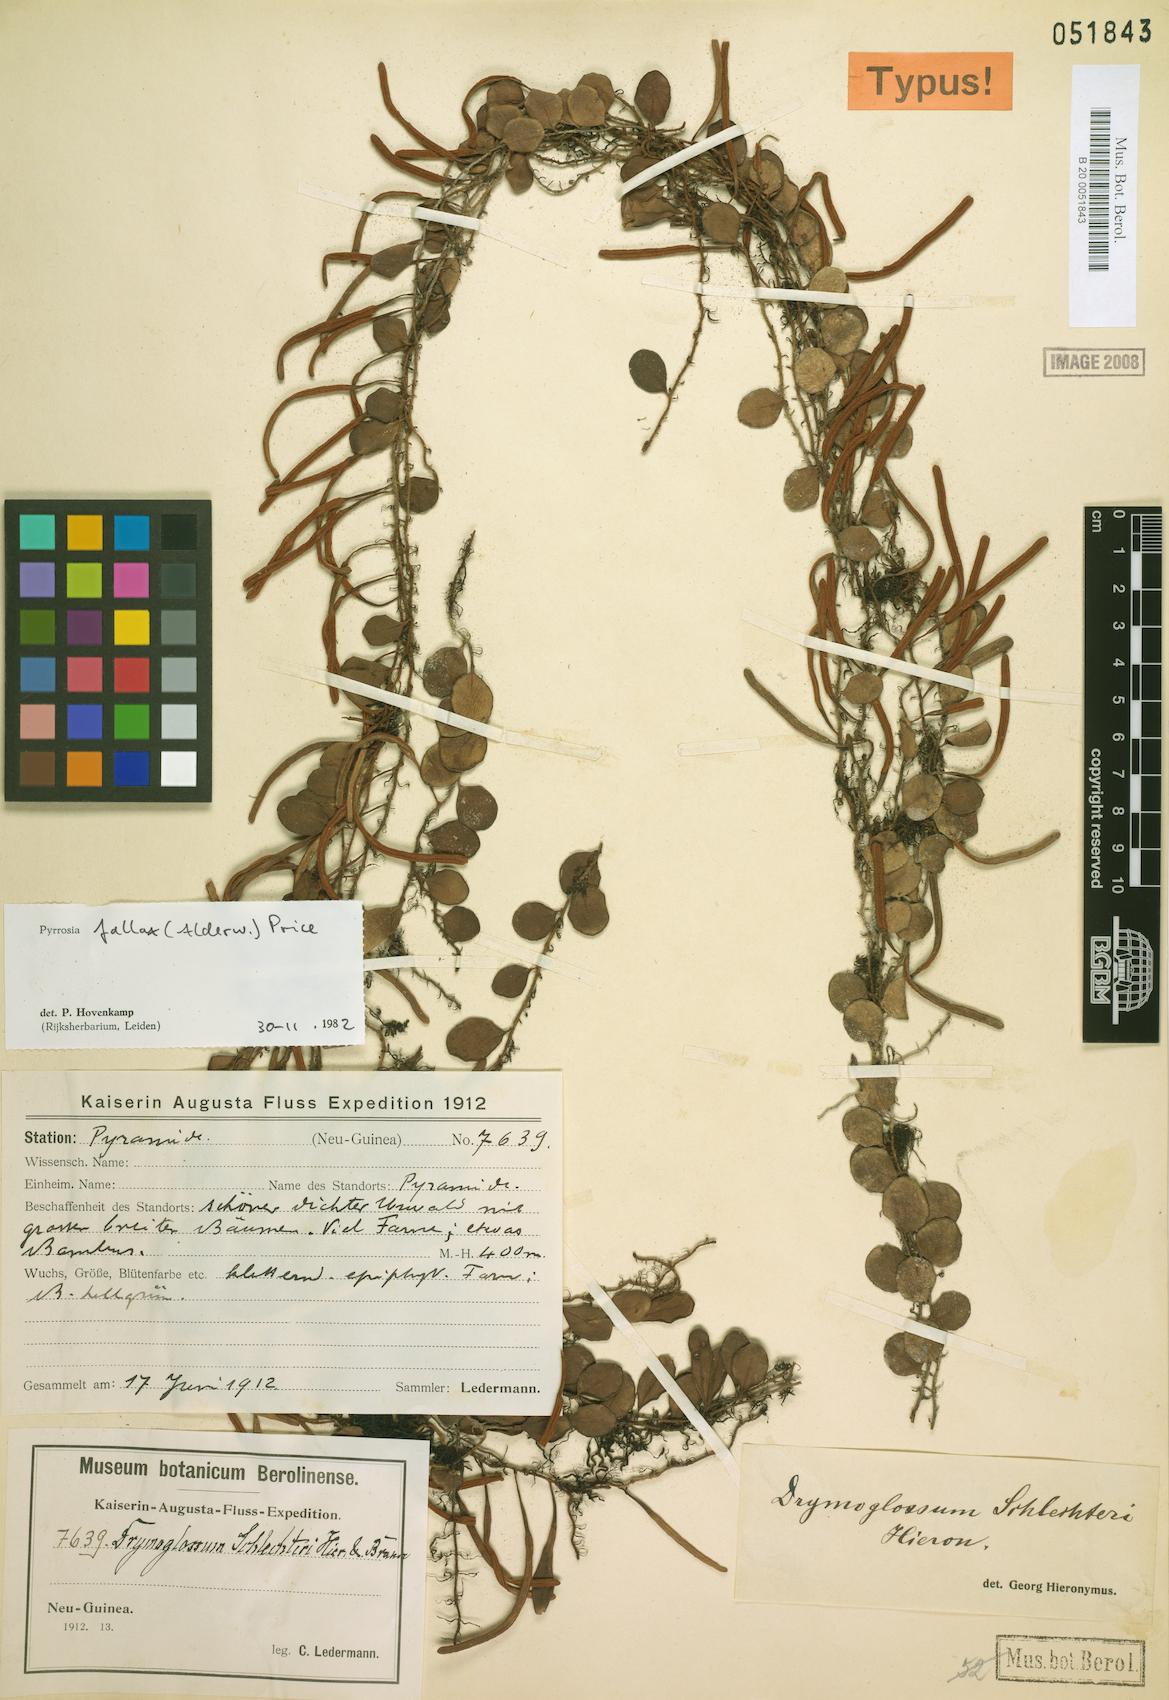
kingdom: Plantae
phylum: Tracheophyta
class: Polypodiopsida
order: Polypodiales
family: Polypodiaceae
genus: Pyrrosia
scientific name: Pyrrosia fallax
